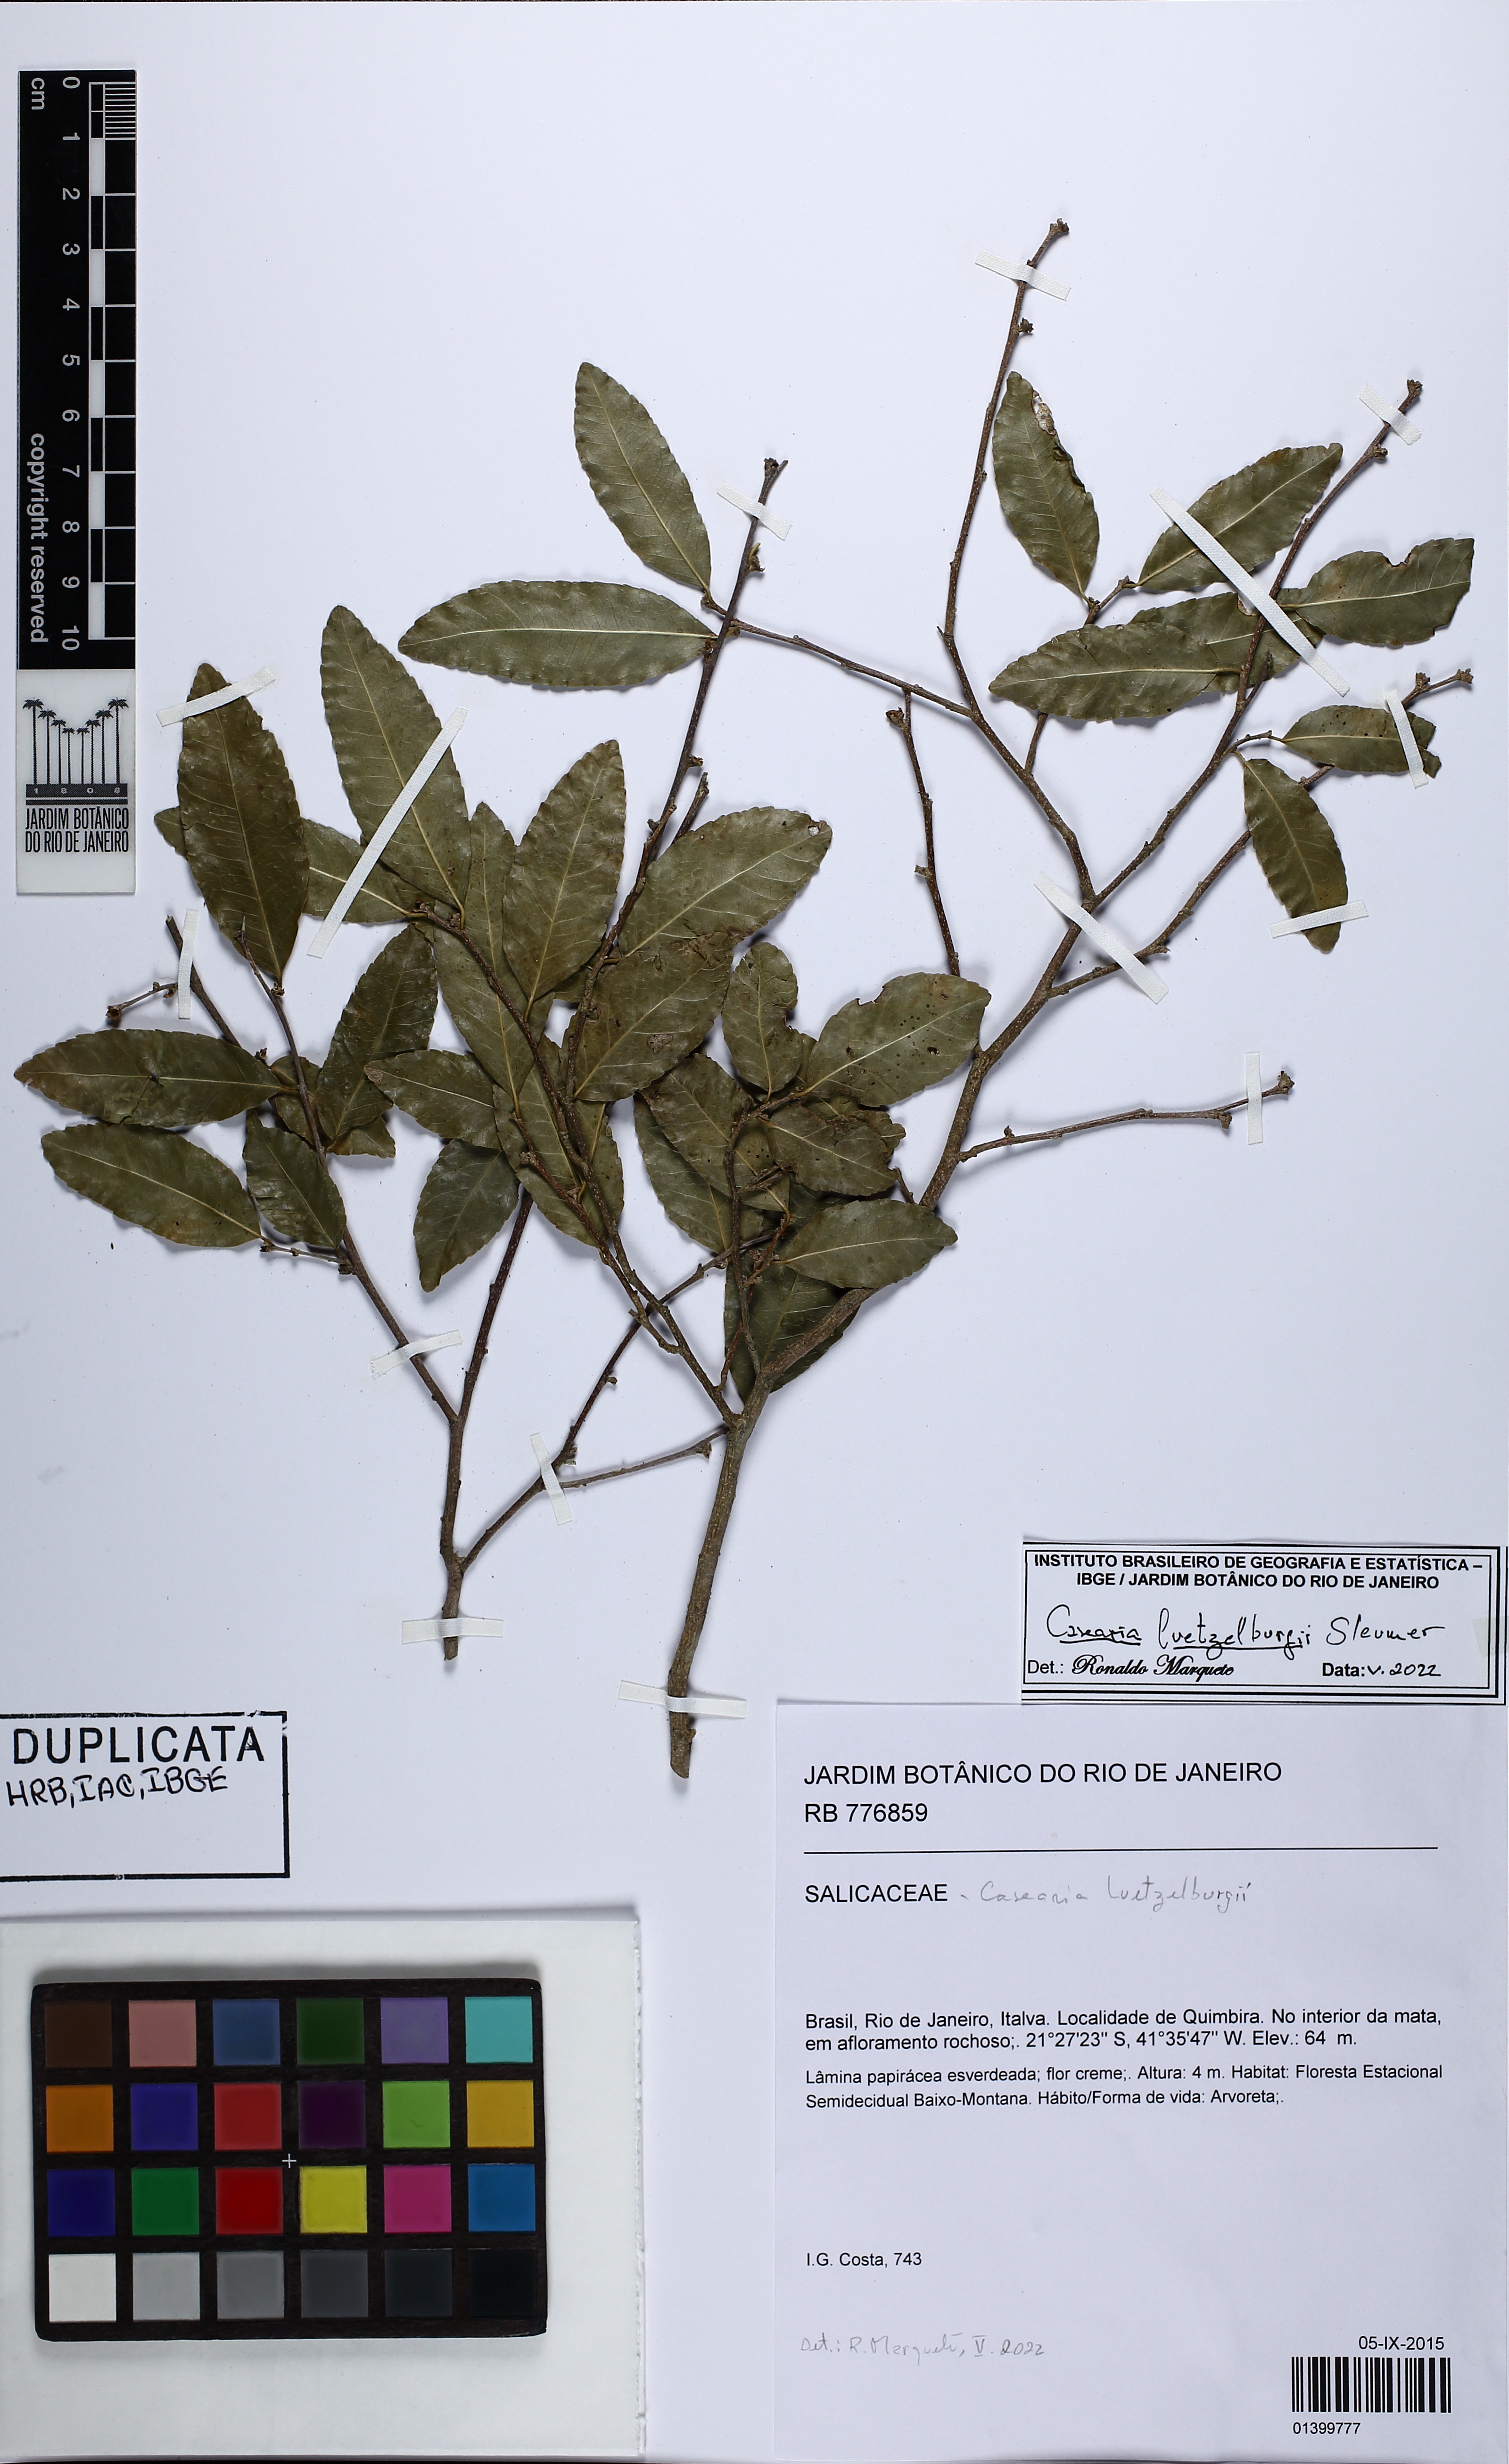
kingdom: Plantae
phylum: Tracheophyta
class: Magnoliopsida
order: Malpighiales
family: Salicaceae
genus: Casearia
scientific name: Casearia luetzelburgii
